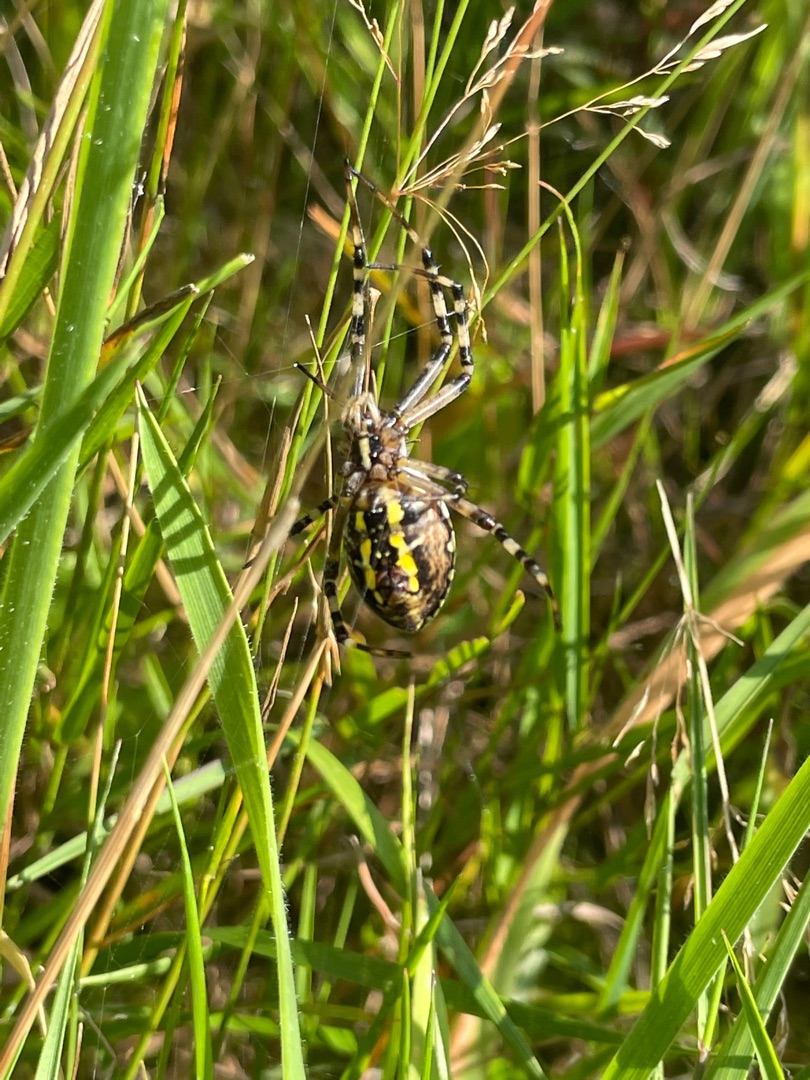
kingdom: Animalia
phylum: Arthropoda
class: Arachnida
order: Araneae
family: Araneidae
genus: Argiope
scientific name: Argiope bruennichi
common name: Hvepseedderkop
